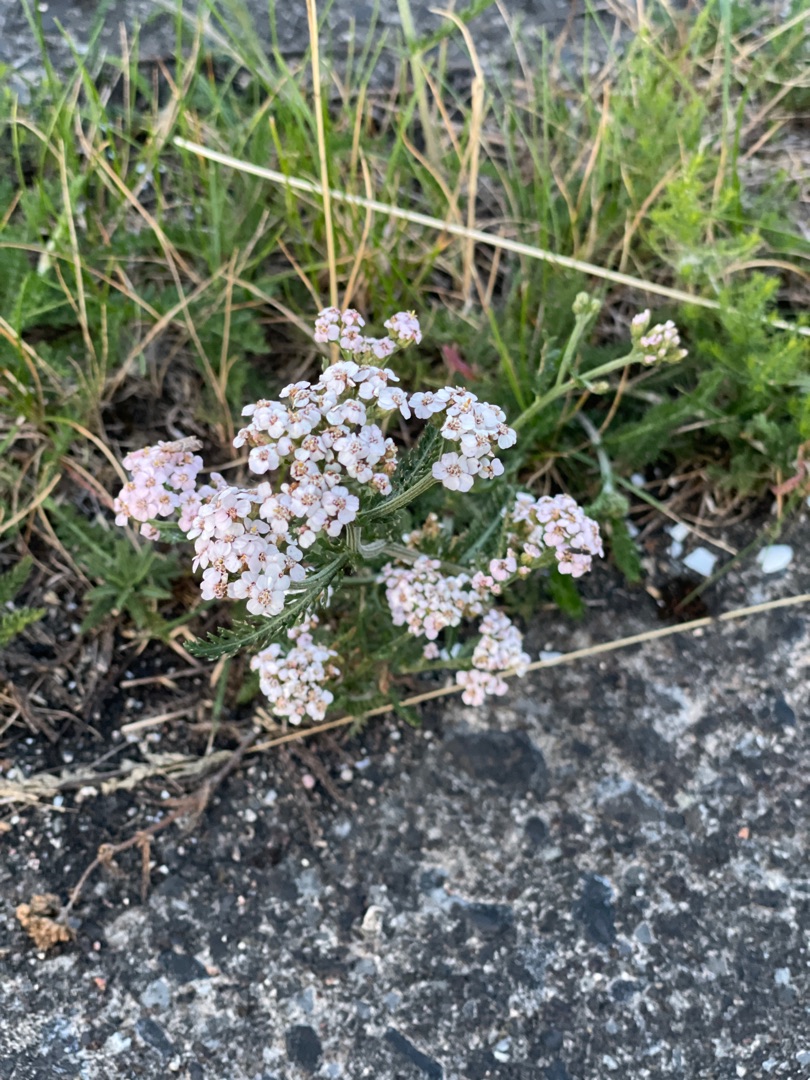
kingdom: Plantae
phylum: Tracheophyta
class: Magnoliopsida
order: Asterales
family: Asteraceae
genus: Achillea
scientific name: Achillea millefolium
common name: Almindelig røllike
